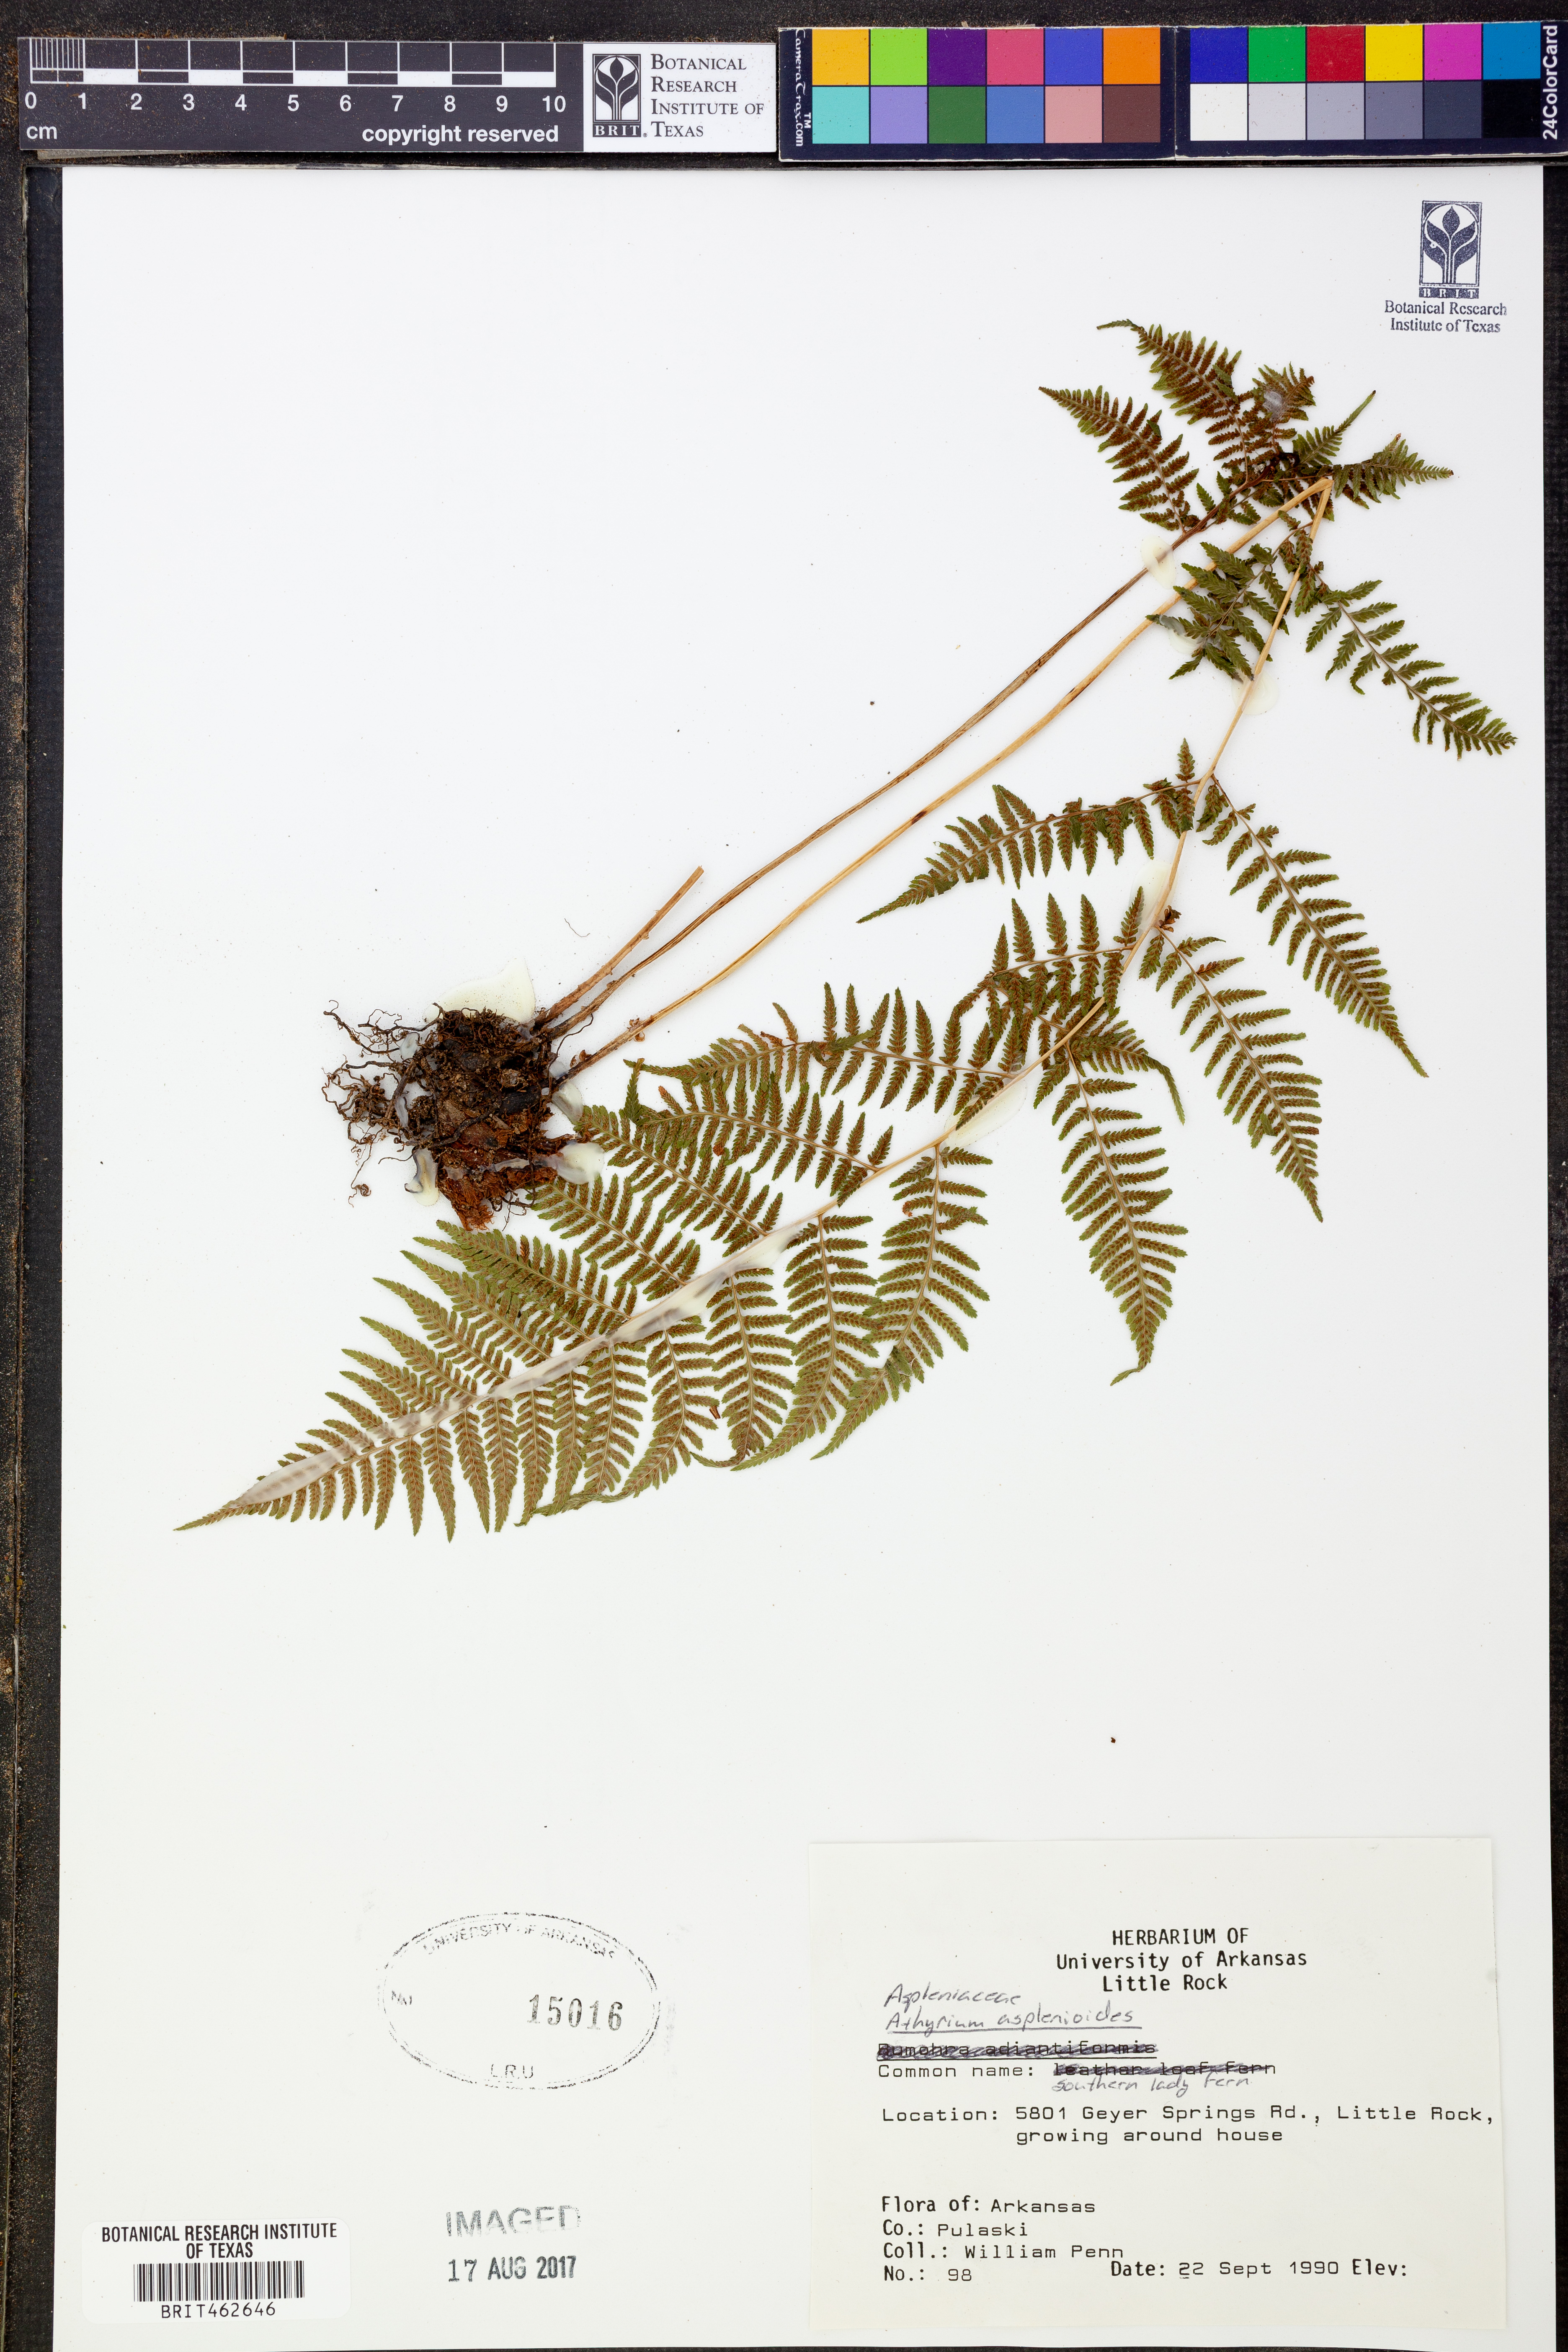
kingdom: Plantae
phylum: Tracheophyta
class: Polypodiopsida
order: Polypodiales
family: Athyriaceae
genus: Athyrium
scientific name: Athyrium asplenioides
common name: Southern lady fern
